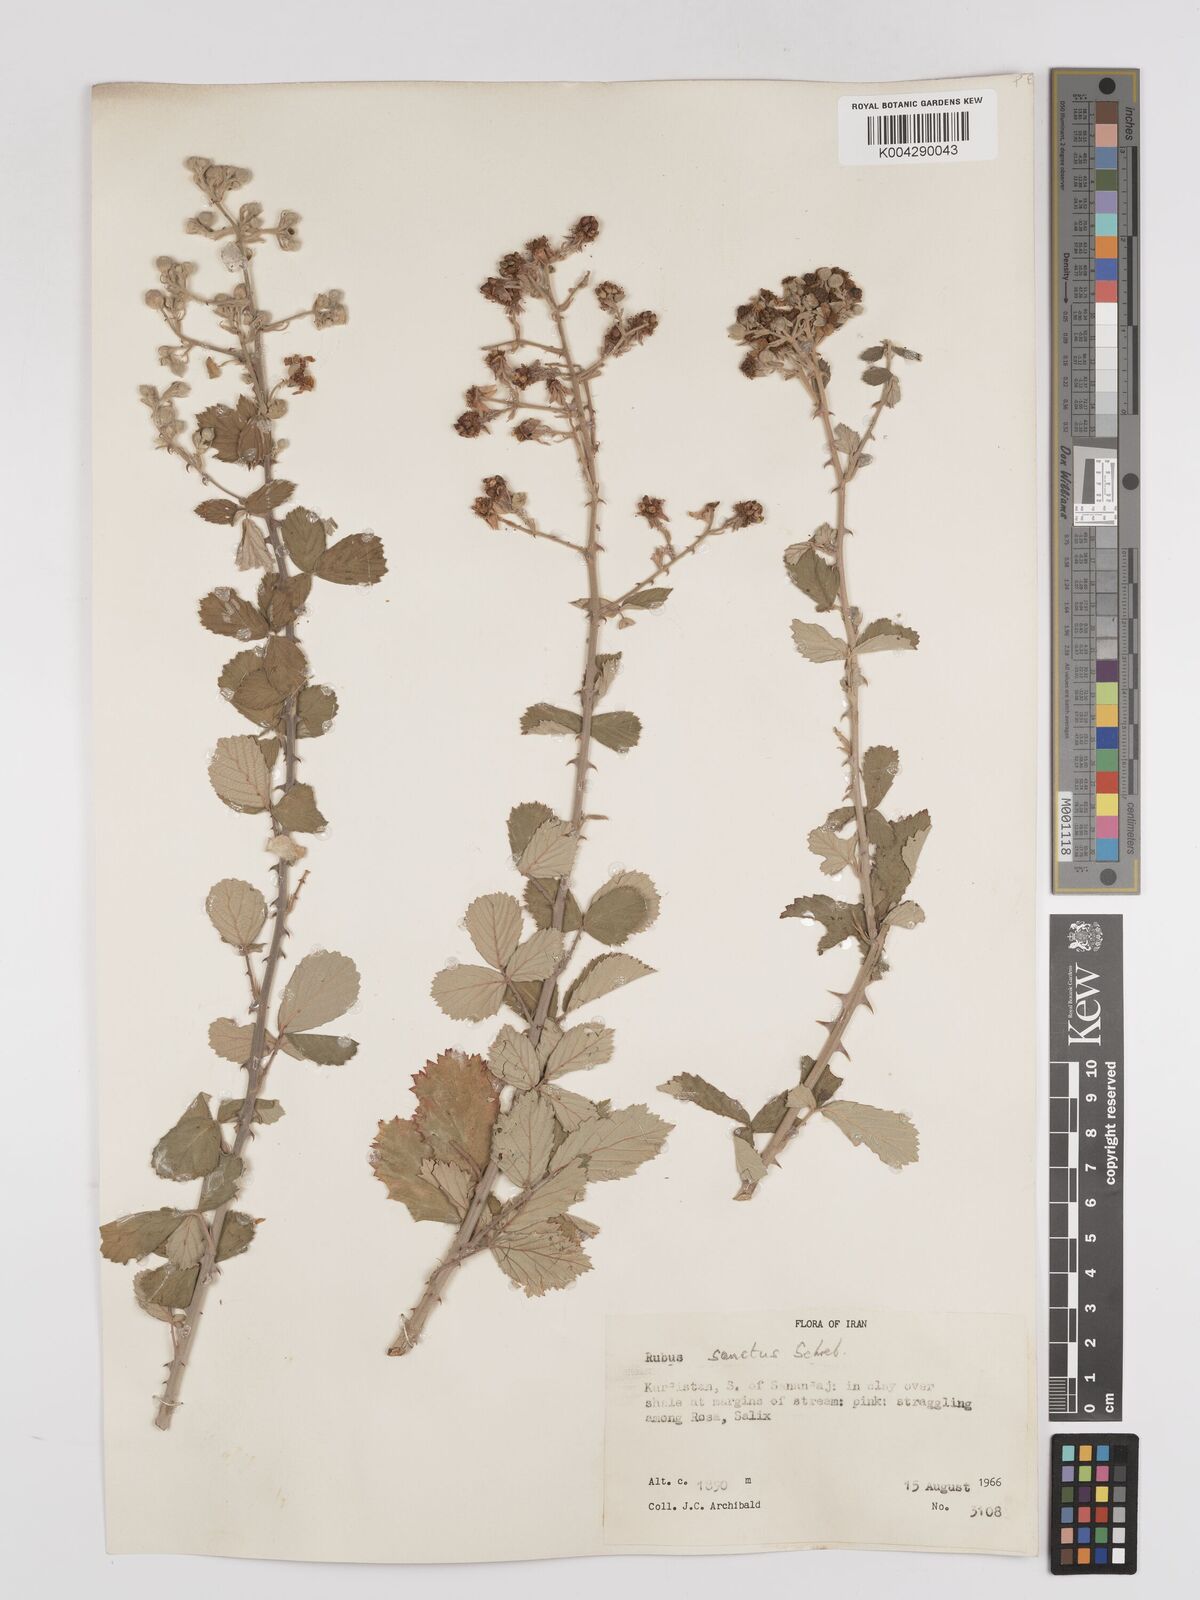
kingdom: Plantae
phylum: Tracheophyta
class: Magnoliopsida
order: Rosales
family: Rosaceae
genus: Rubus
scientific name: Rubus sanctus
